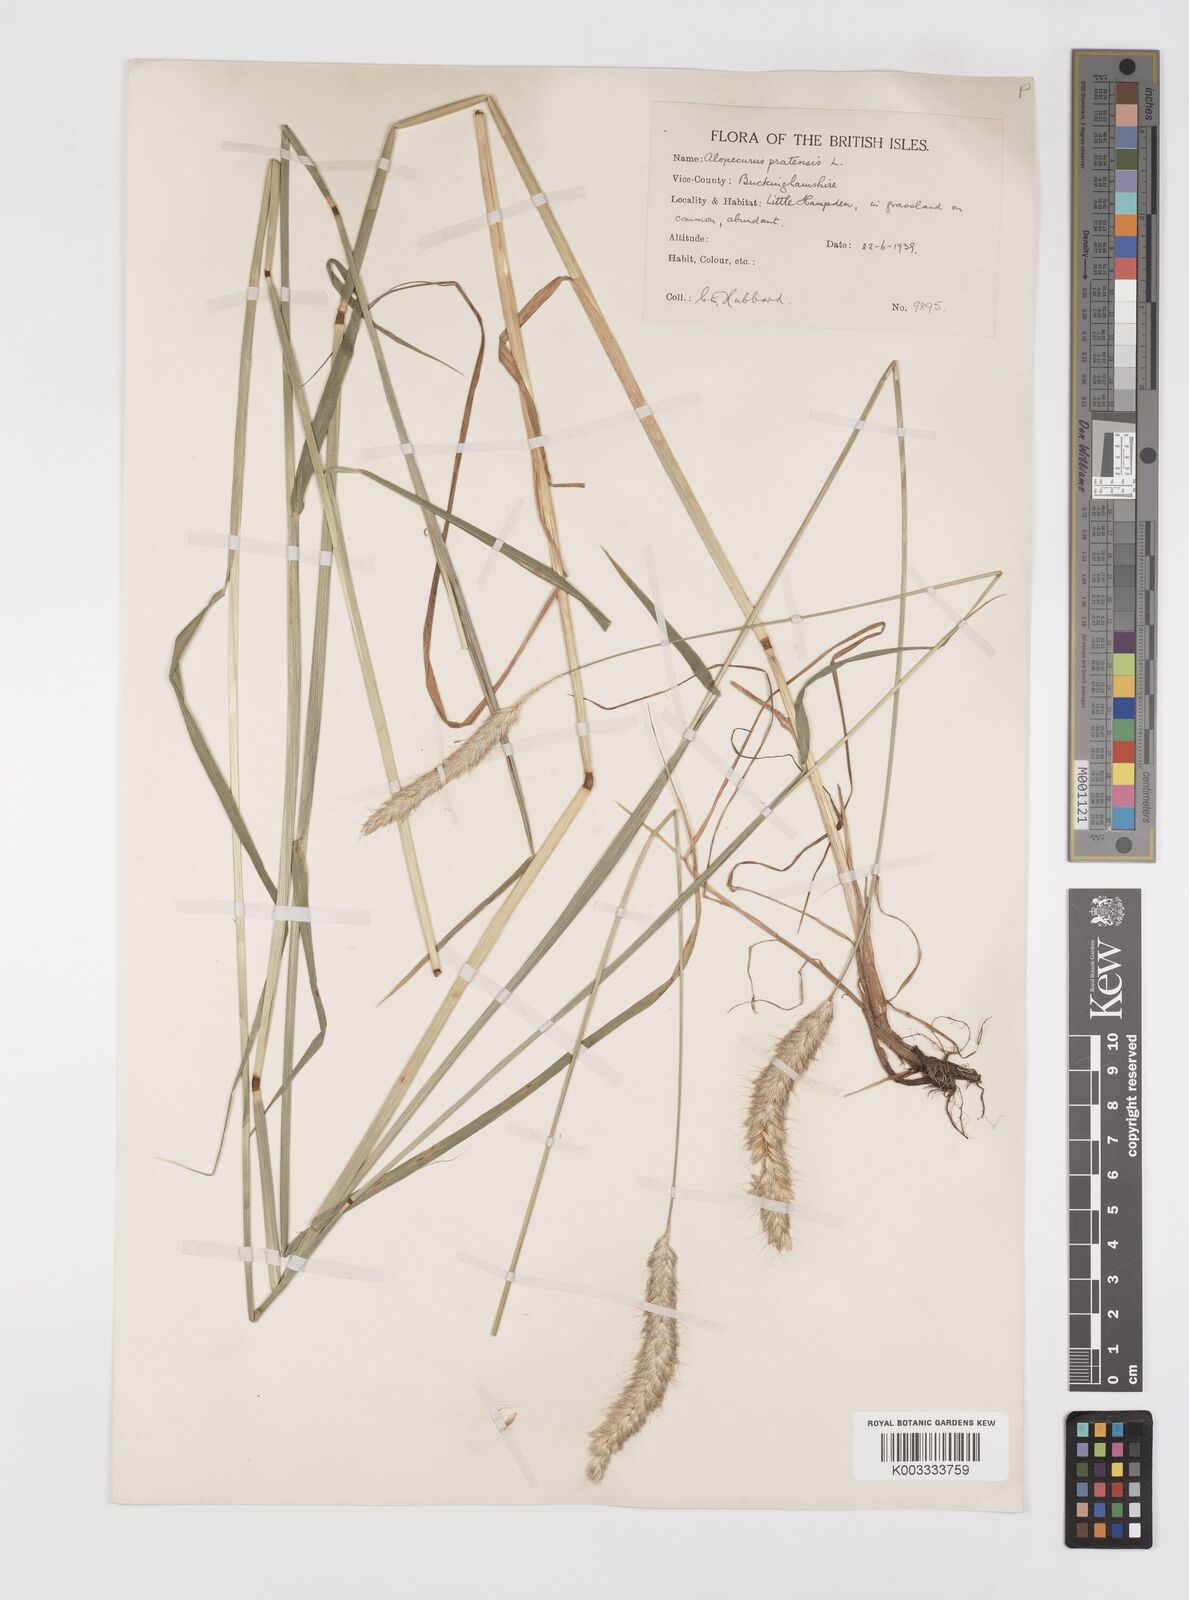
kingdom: Plantae
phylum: Tracheophyta
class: Liliopsida
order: Poales
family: Poaceae
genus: Alopecurus
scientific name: Alopecurus pratensis
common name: Meadow foxtail
